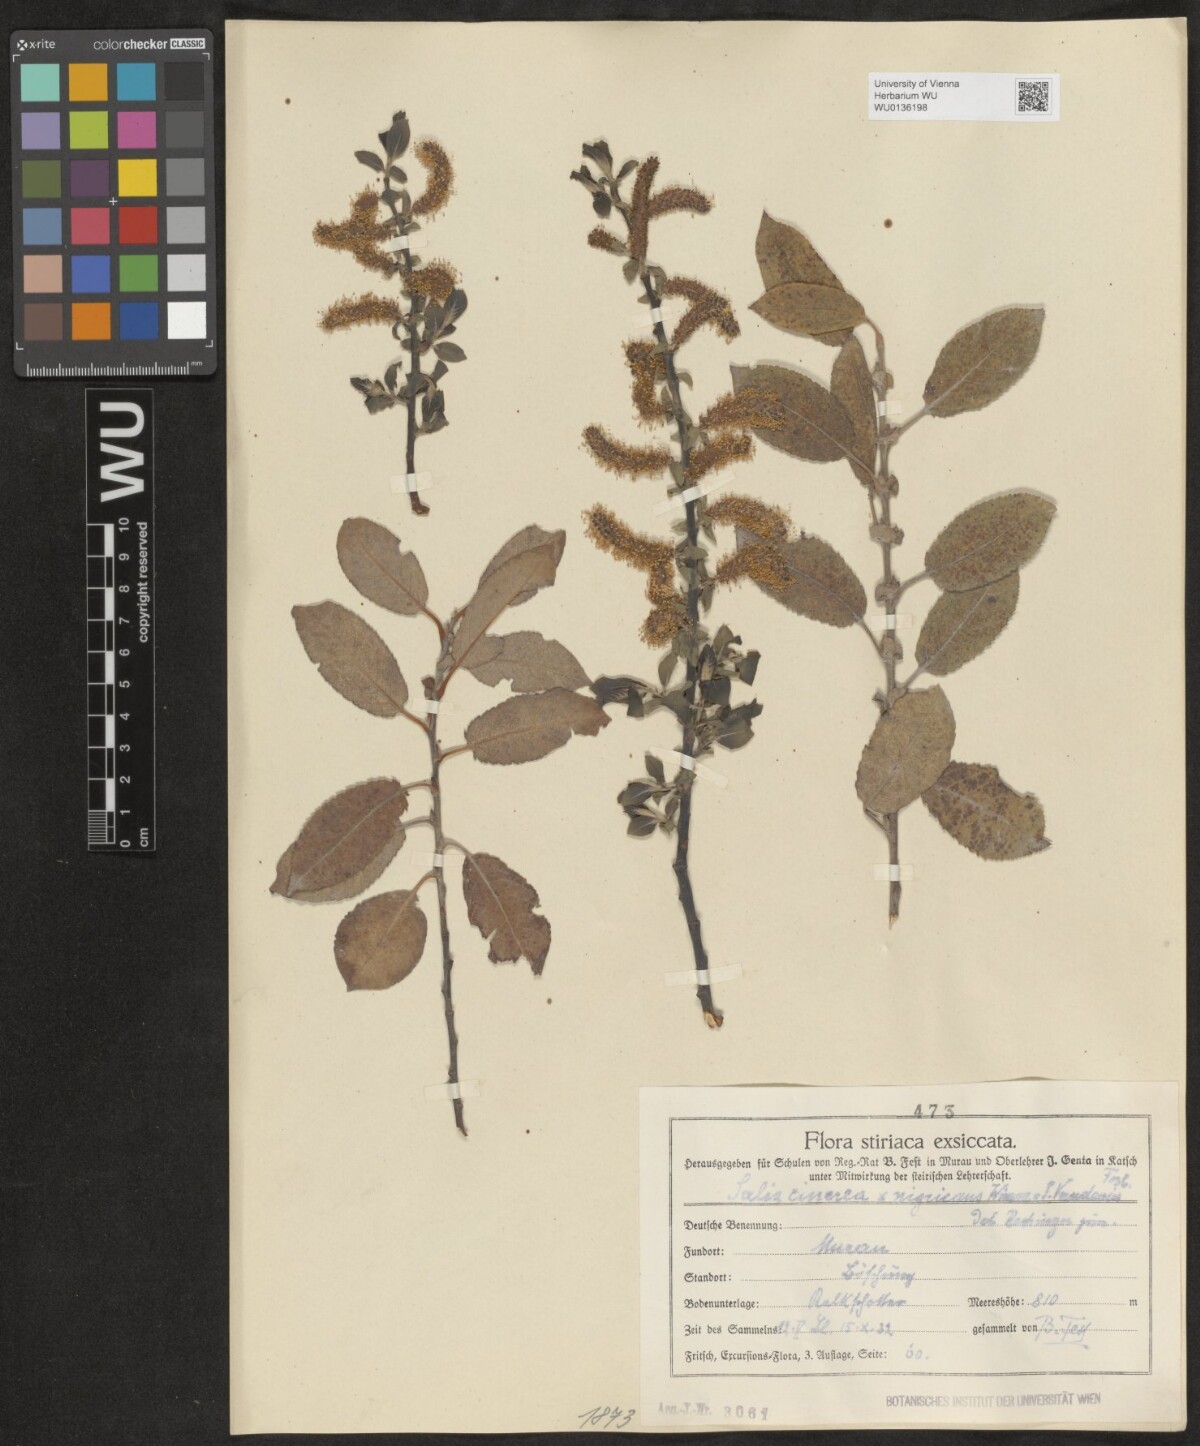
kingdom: Plantae
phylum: Tracheophyta
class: Magnoliopsida
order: Malpighiales
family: Salicaceae
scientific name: Salicaceae
